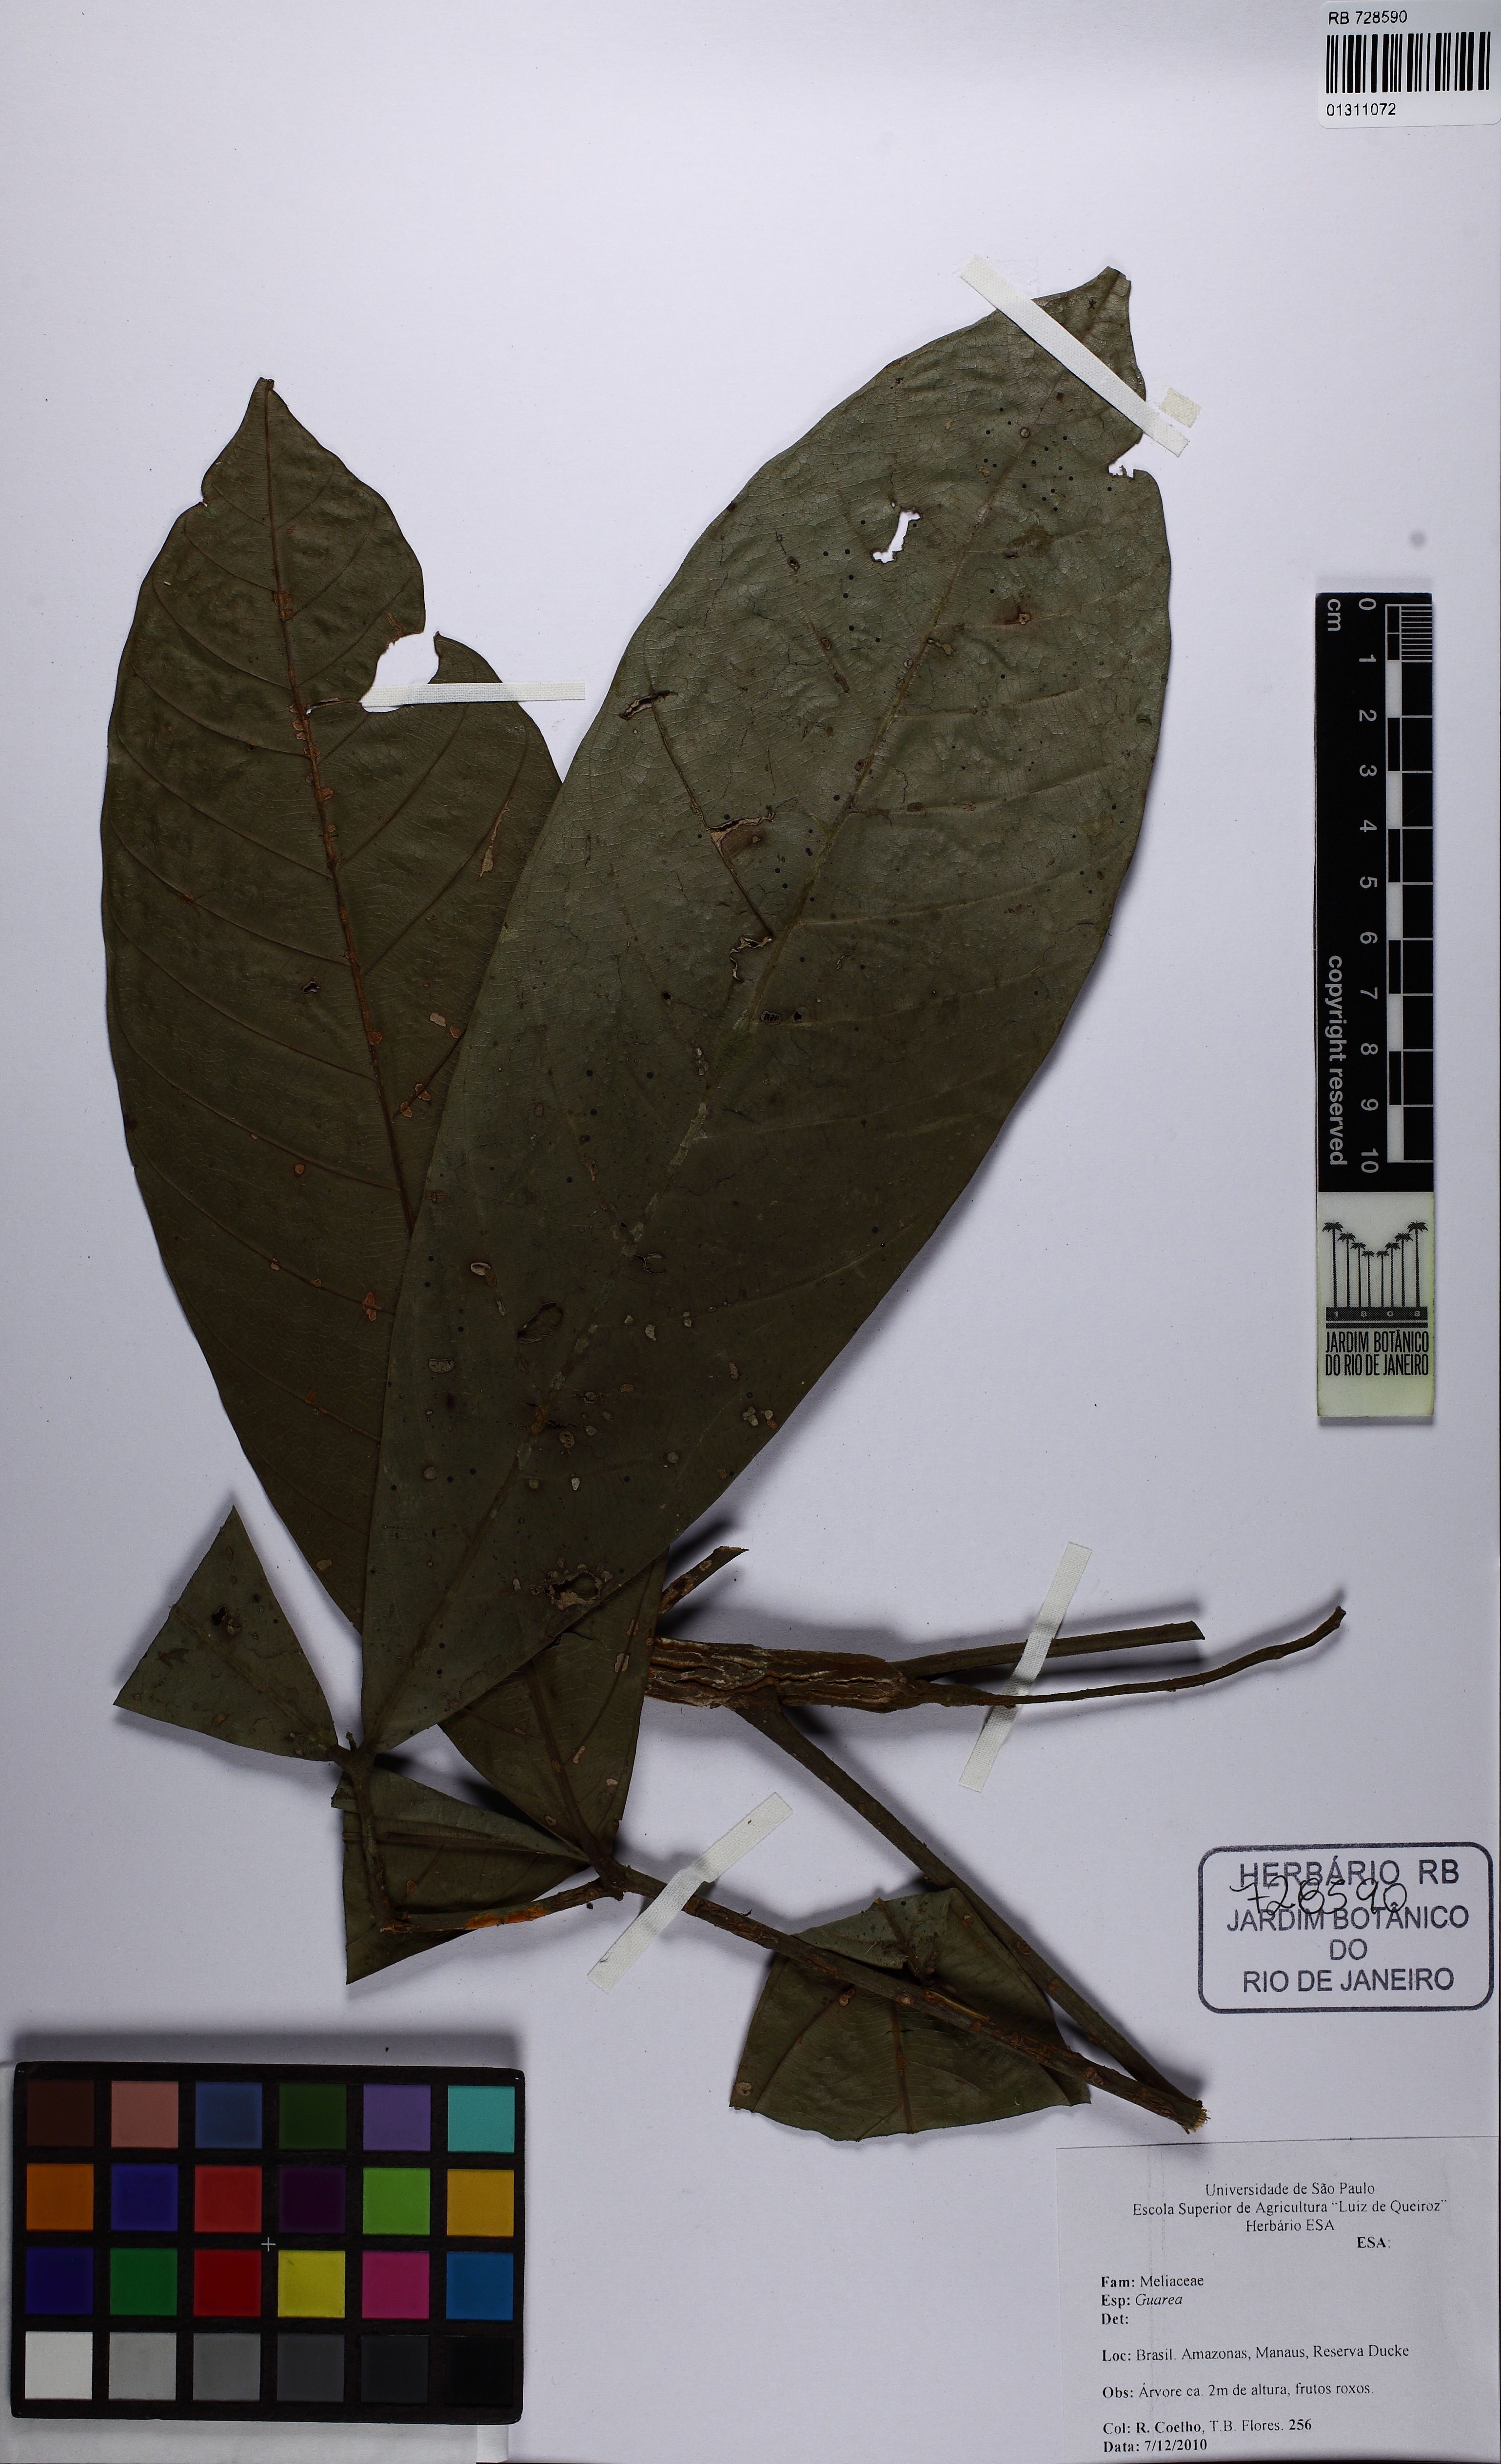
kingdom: Plantae
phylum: Tracheophyta
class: Magnoliopsida
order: Sapindales
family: Meliaceae
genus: Guarea
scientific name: Guarea
